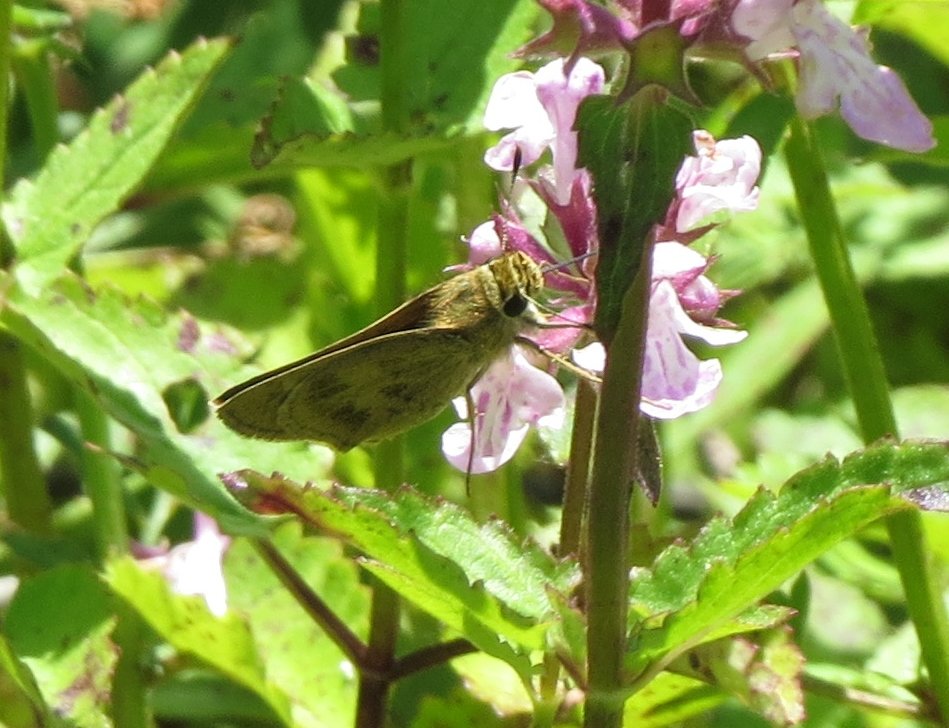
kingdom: Animalia
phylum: Arthropoda
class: Insecta
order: Lepidoptera
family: Hesperiidae
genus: Polites
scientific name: Polites vibex
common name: Whirlabout
